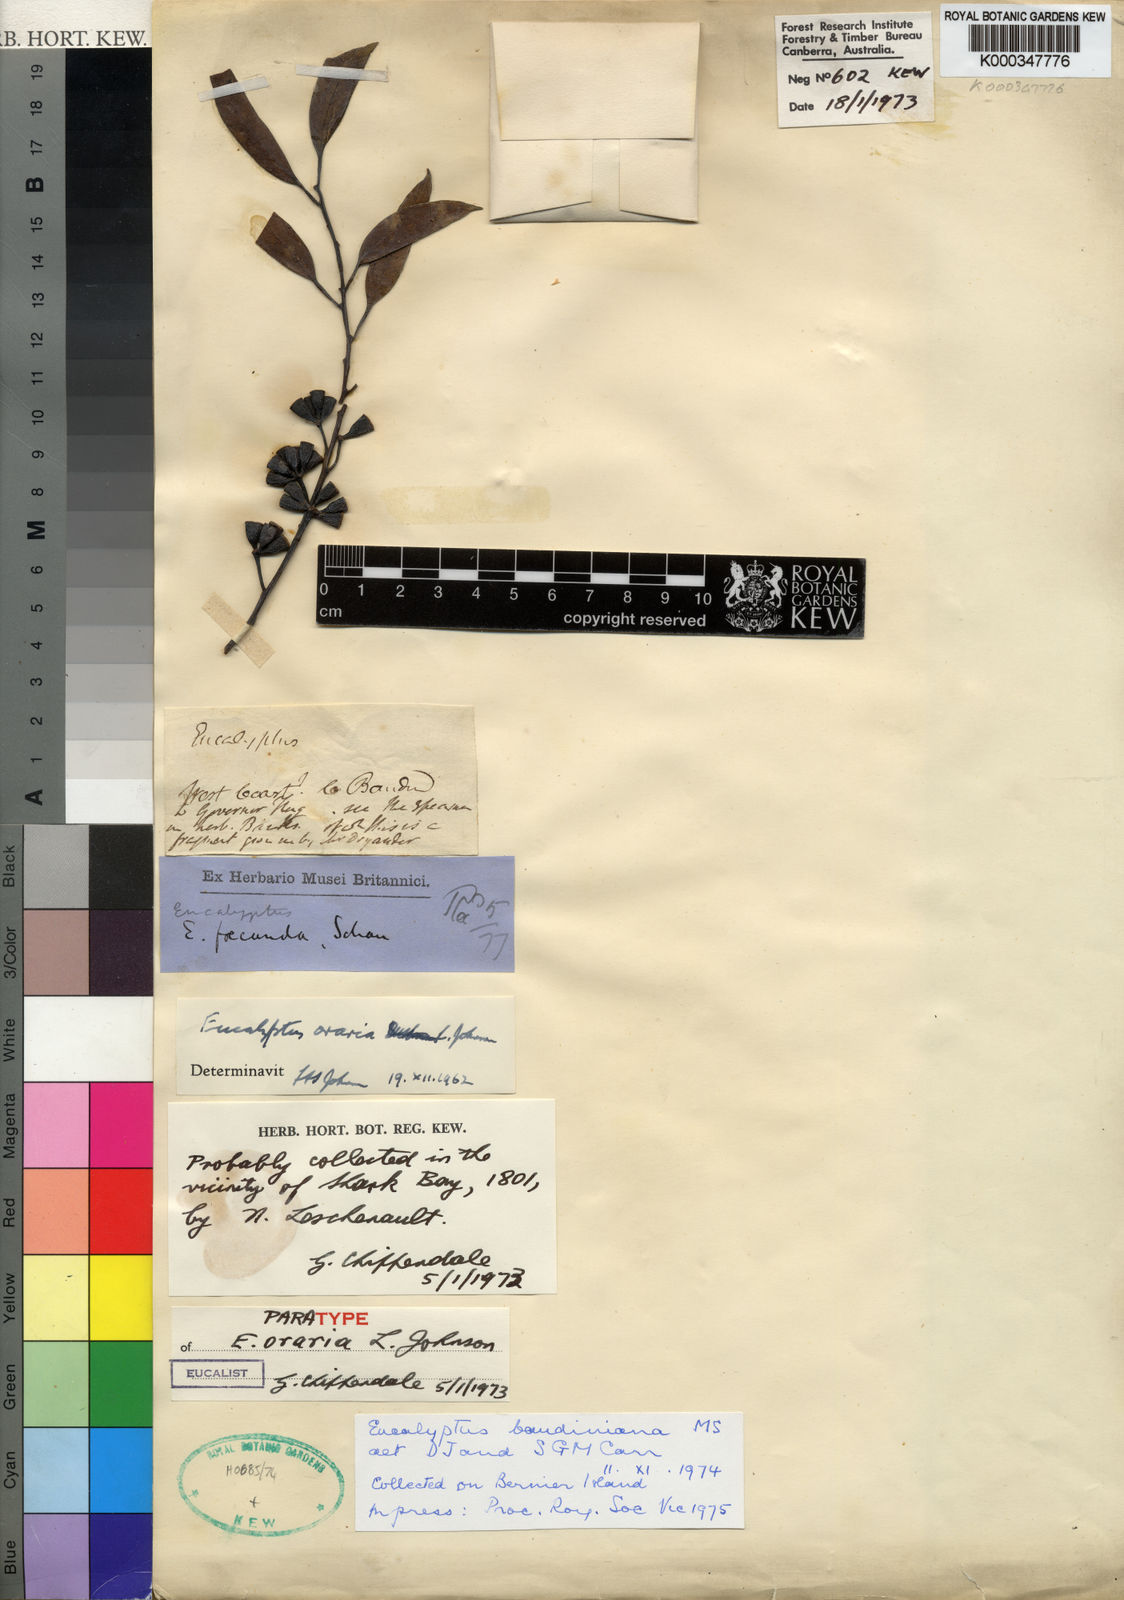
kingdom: Plantae
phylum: Tracheophyta
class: Magnoliopsida
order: Myrtales
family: Myrtaceae
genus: Eucalyptus
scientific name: Eucalyptus oraria
